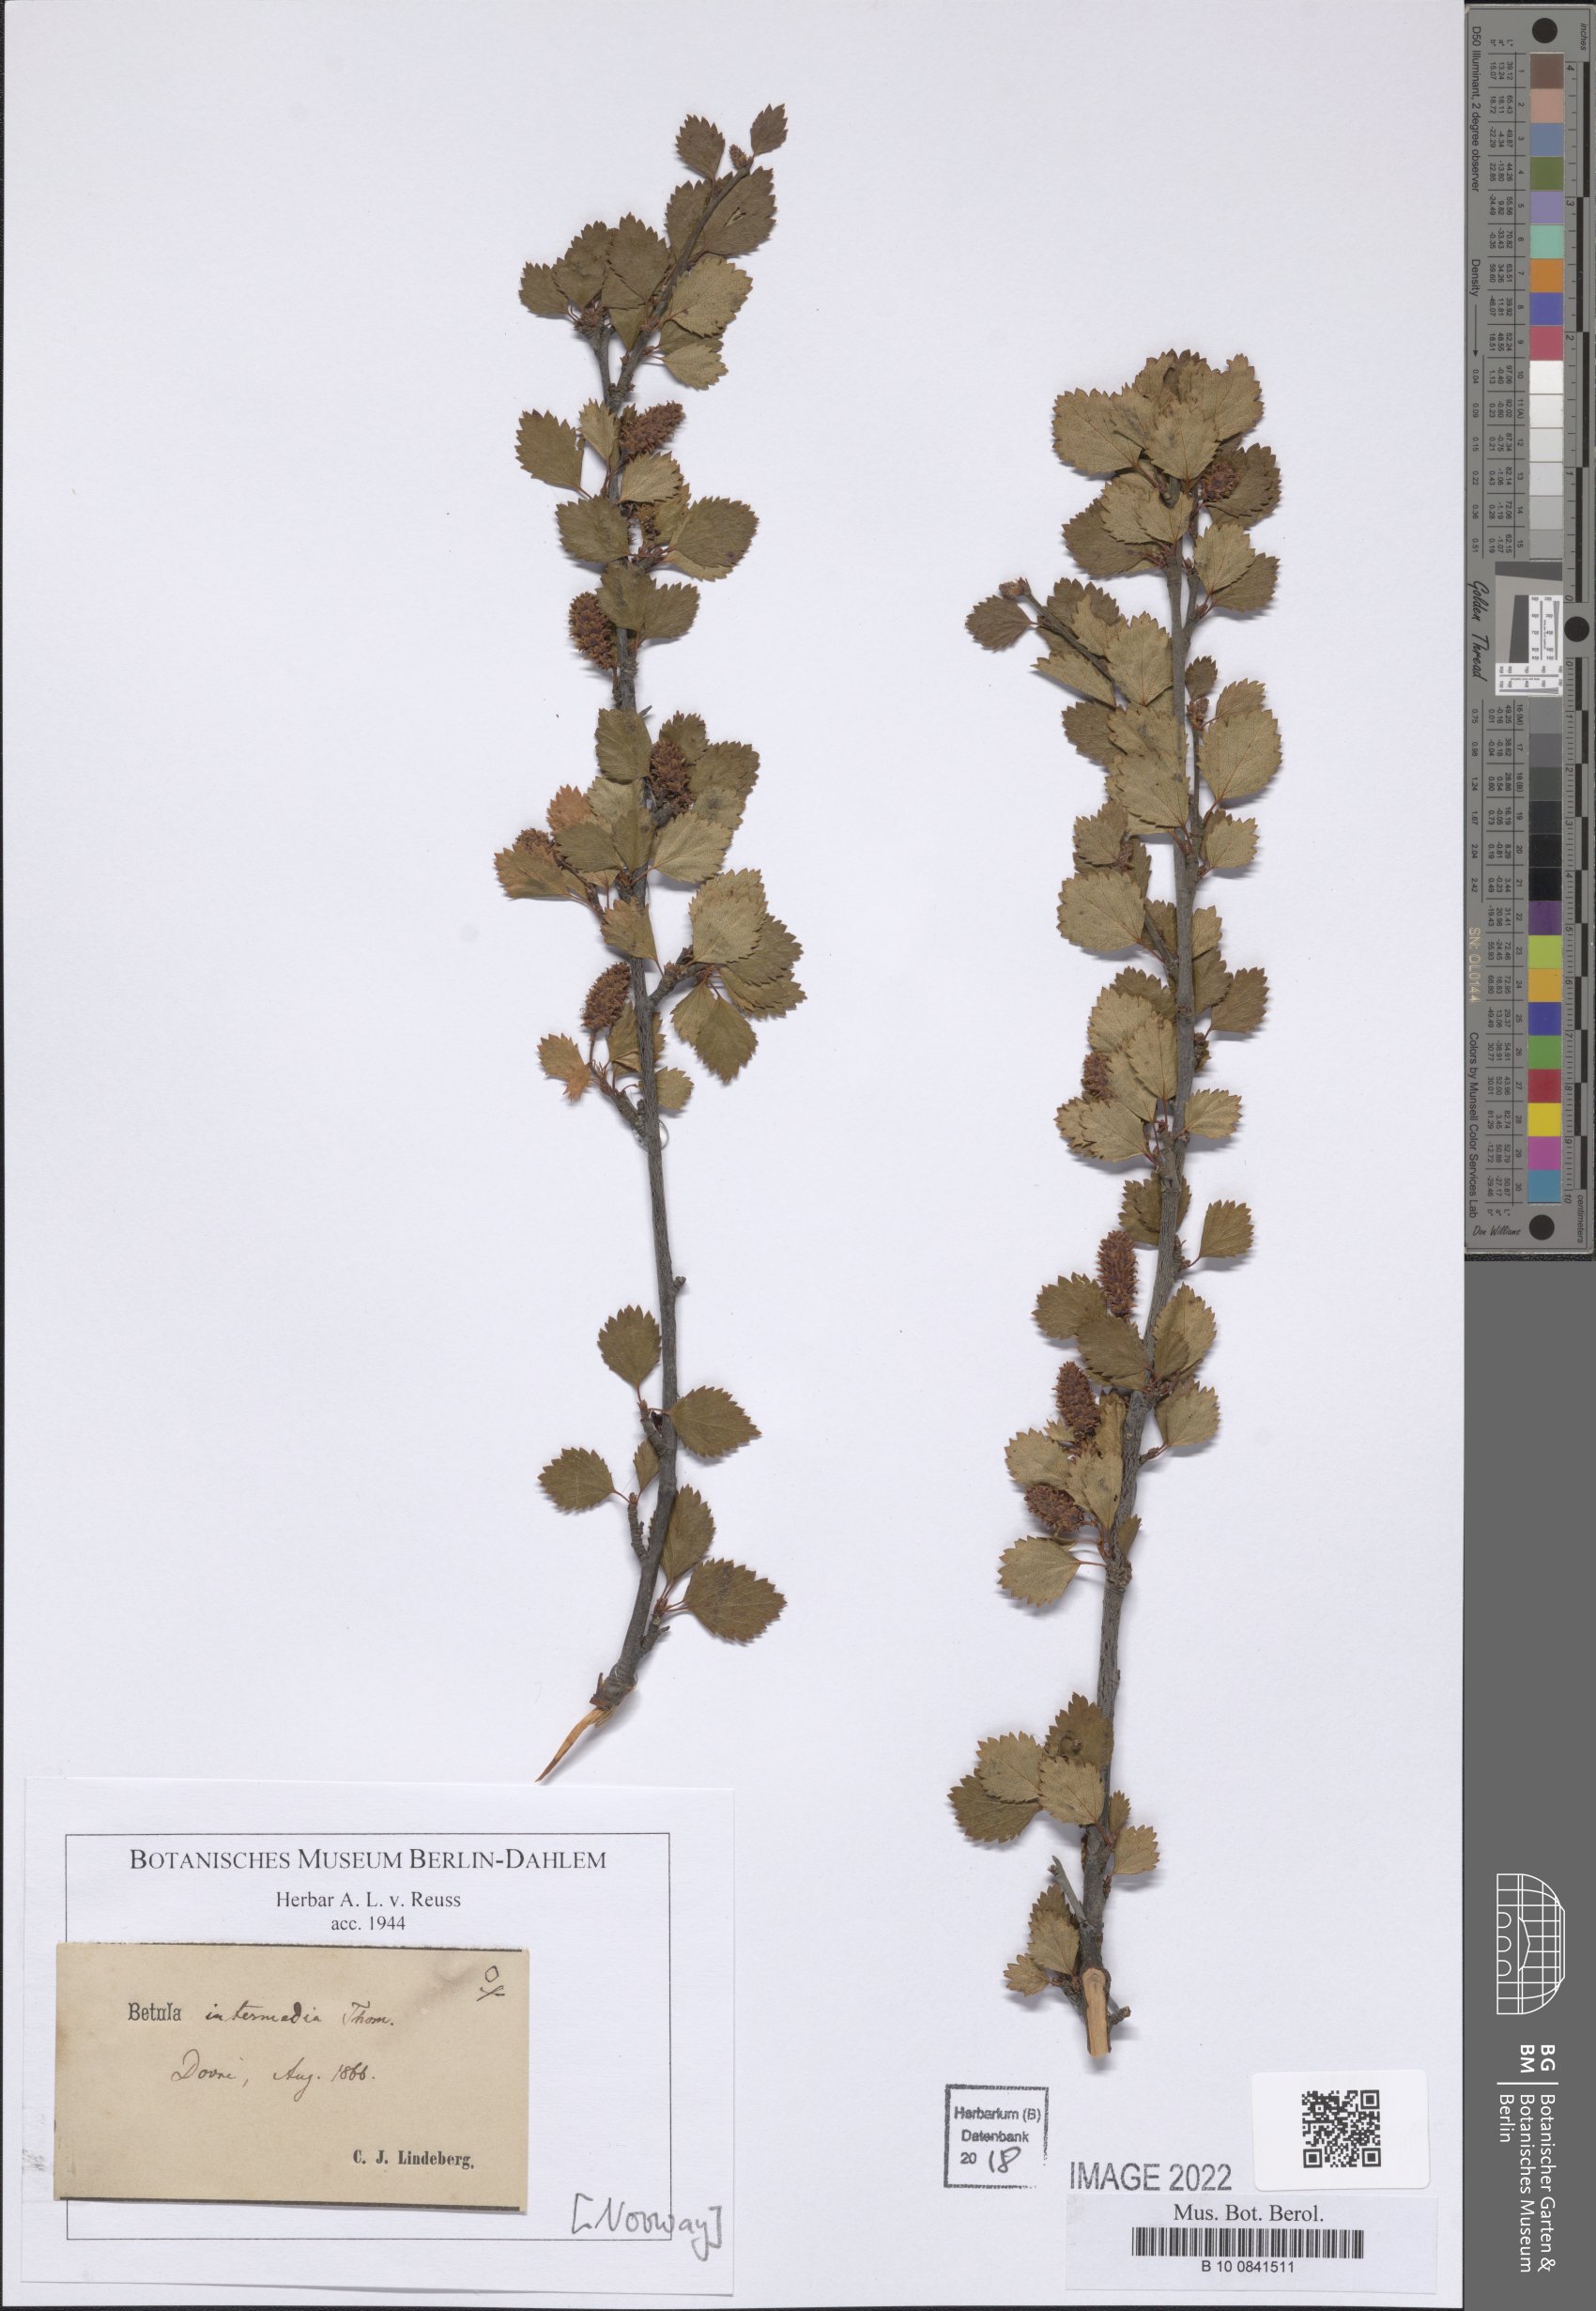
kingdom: Plantae
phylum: Tracheophyta
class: Magnoliopsida
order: Fagales
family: Betulaceae
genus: Betula
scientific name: Betula intermedia
